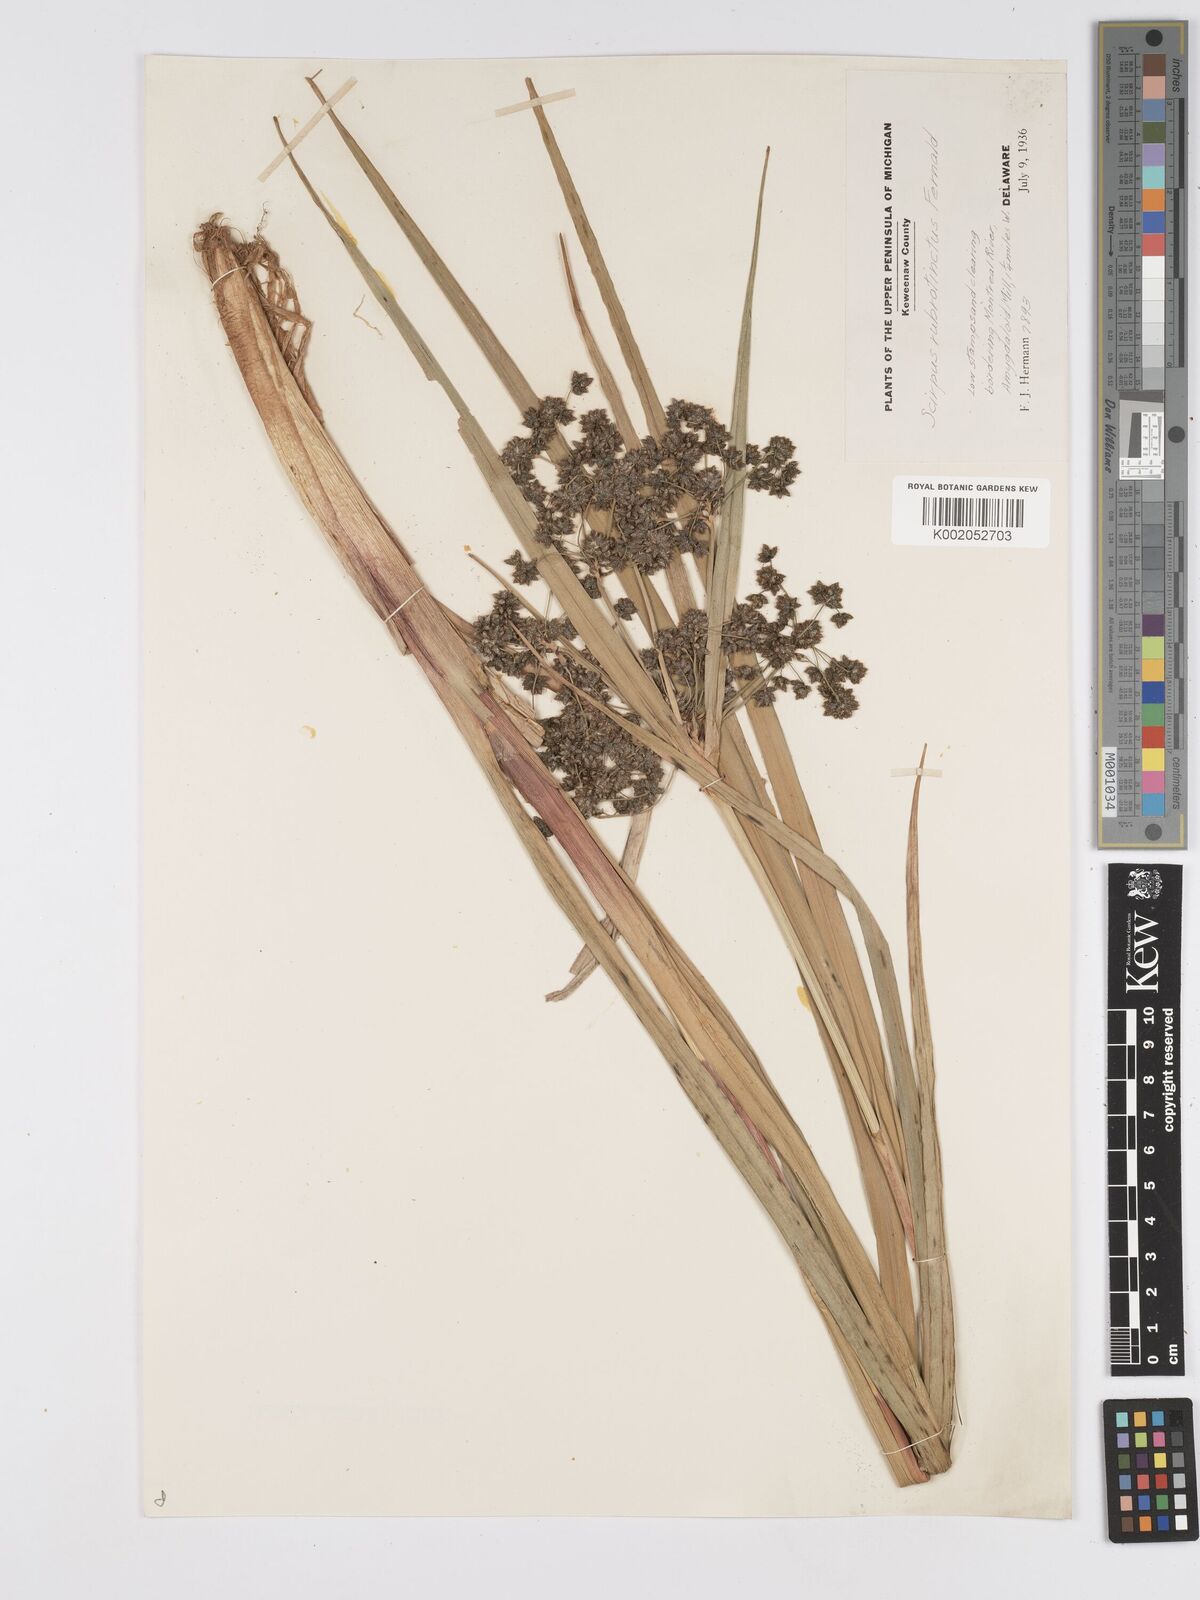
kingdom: Plantae
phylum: Tracheophyta
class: Liliopsida
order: Poales
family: Cyperaceae
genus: Scirpus
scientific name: Scirpus atrovirens
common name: Black bulrush
